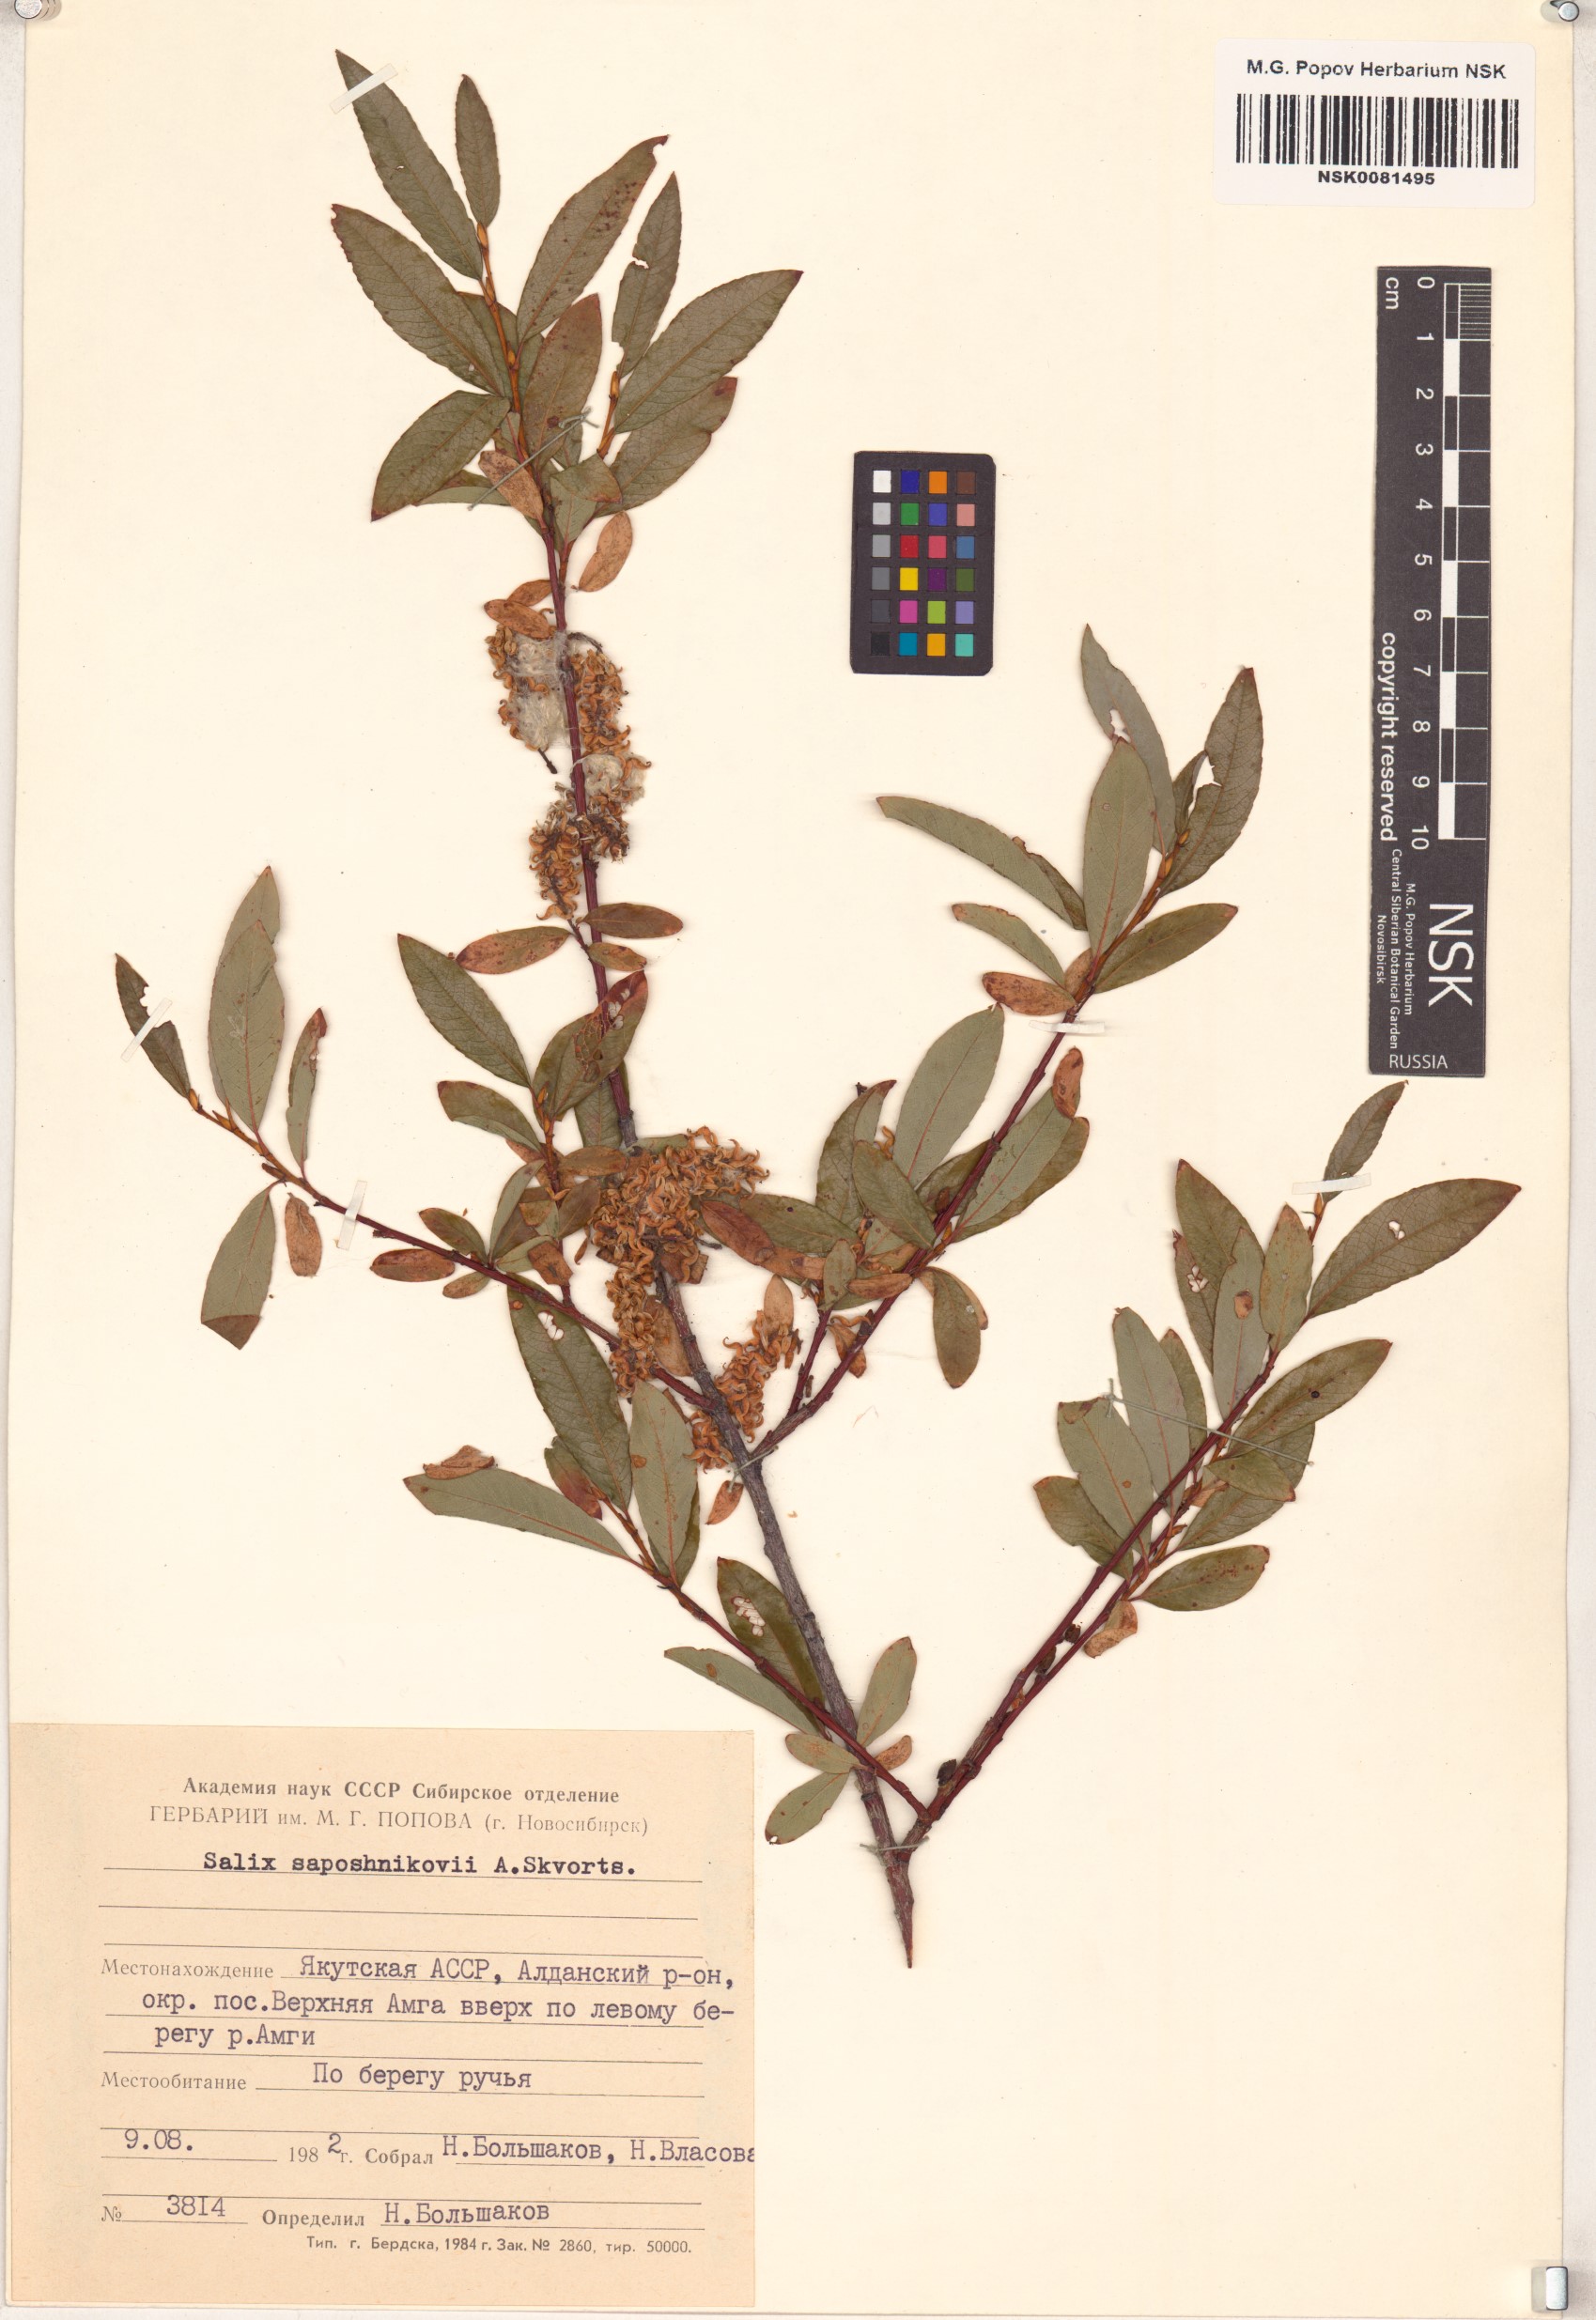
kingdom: Plantae
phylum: Tracheophyta
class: Magnoliopsida
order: Malpighiales
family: Salicaceae
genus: Salix
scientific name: Salix saposhnikovii
